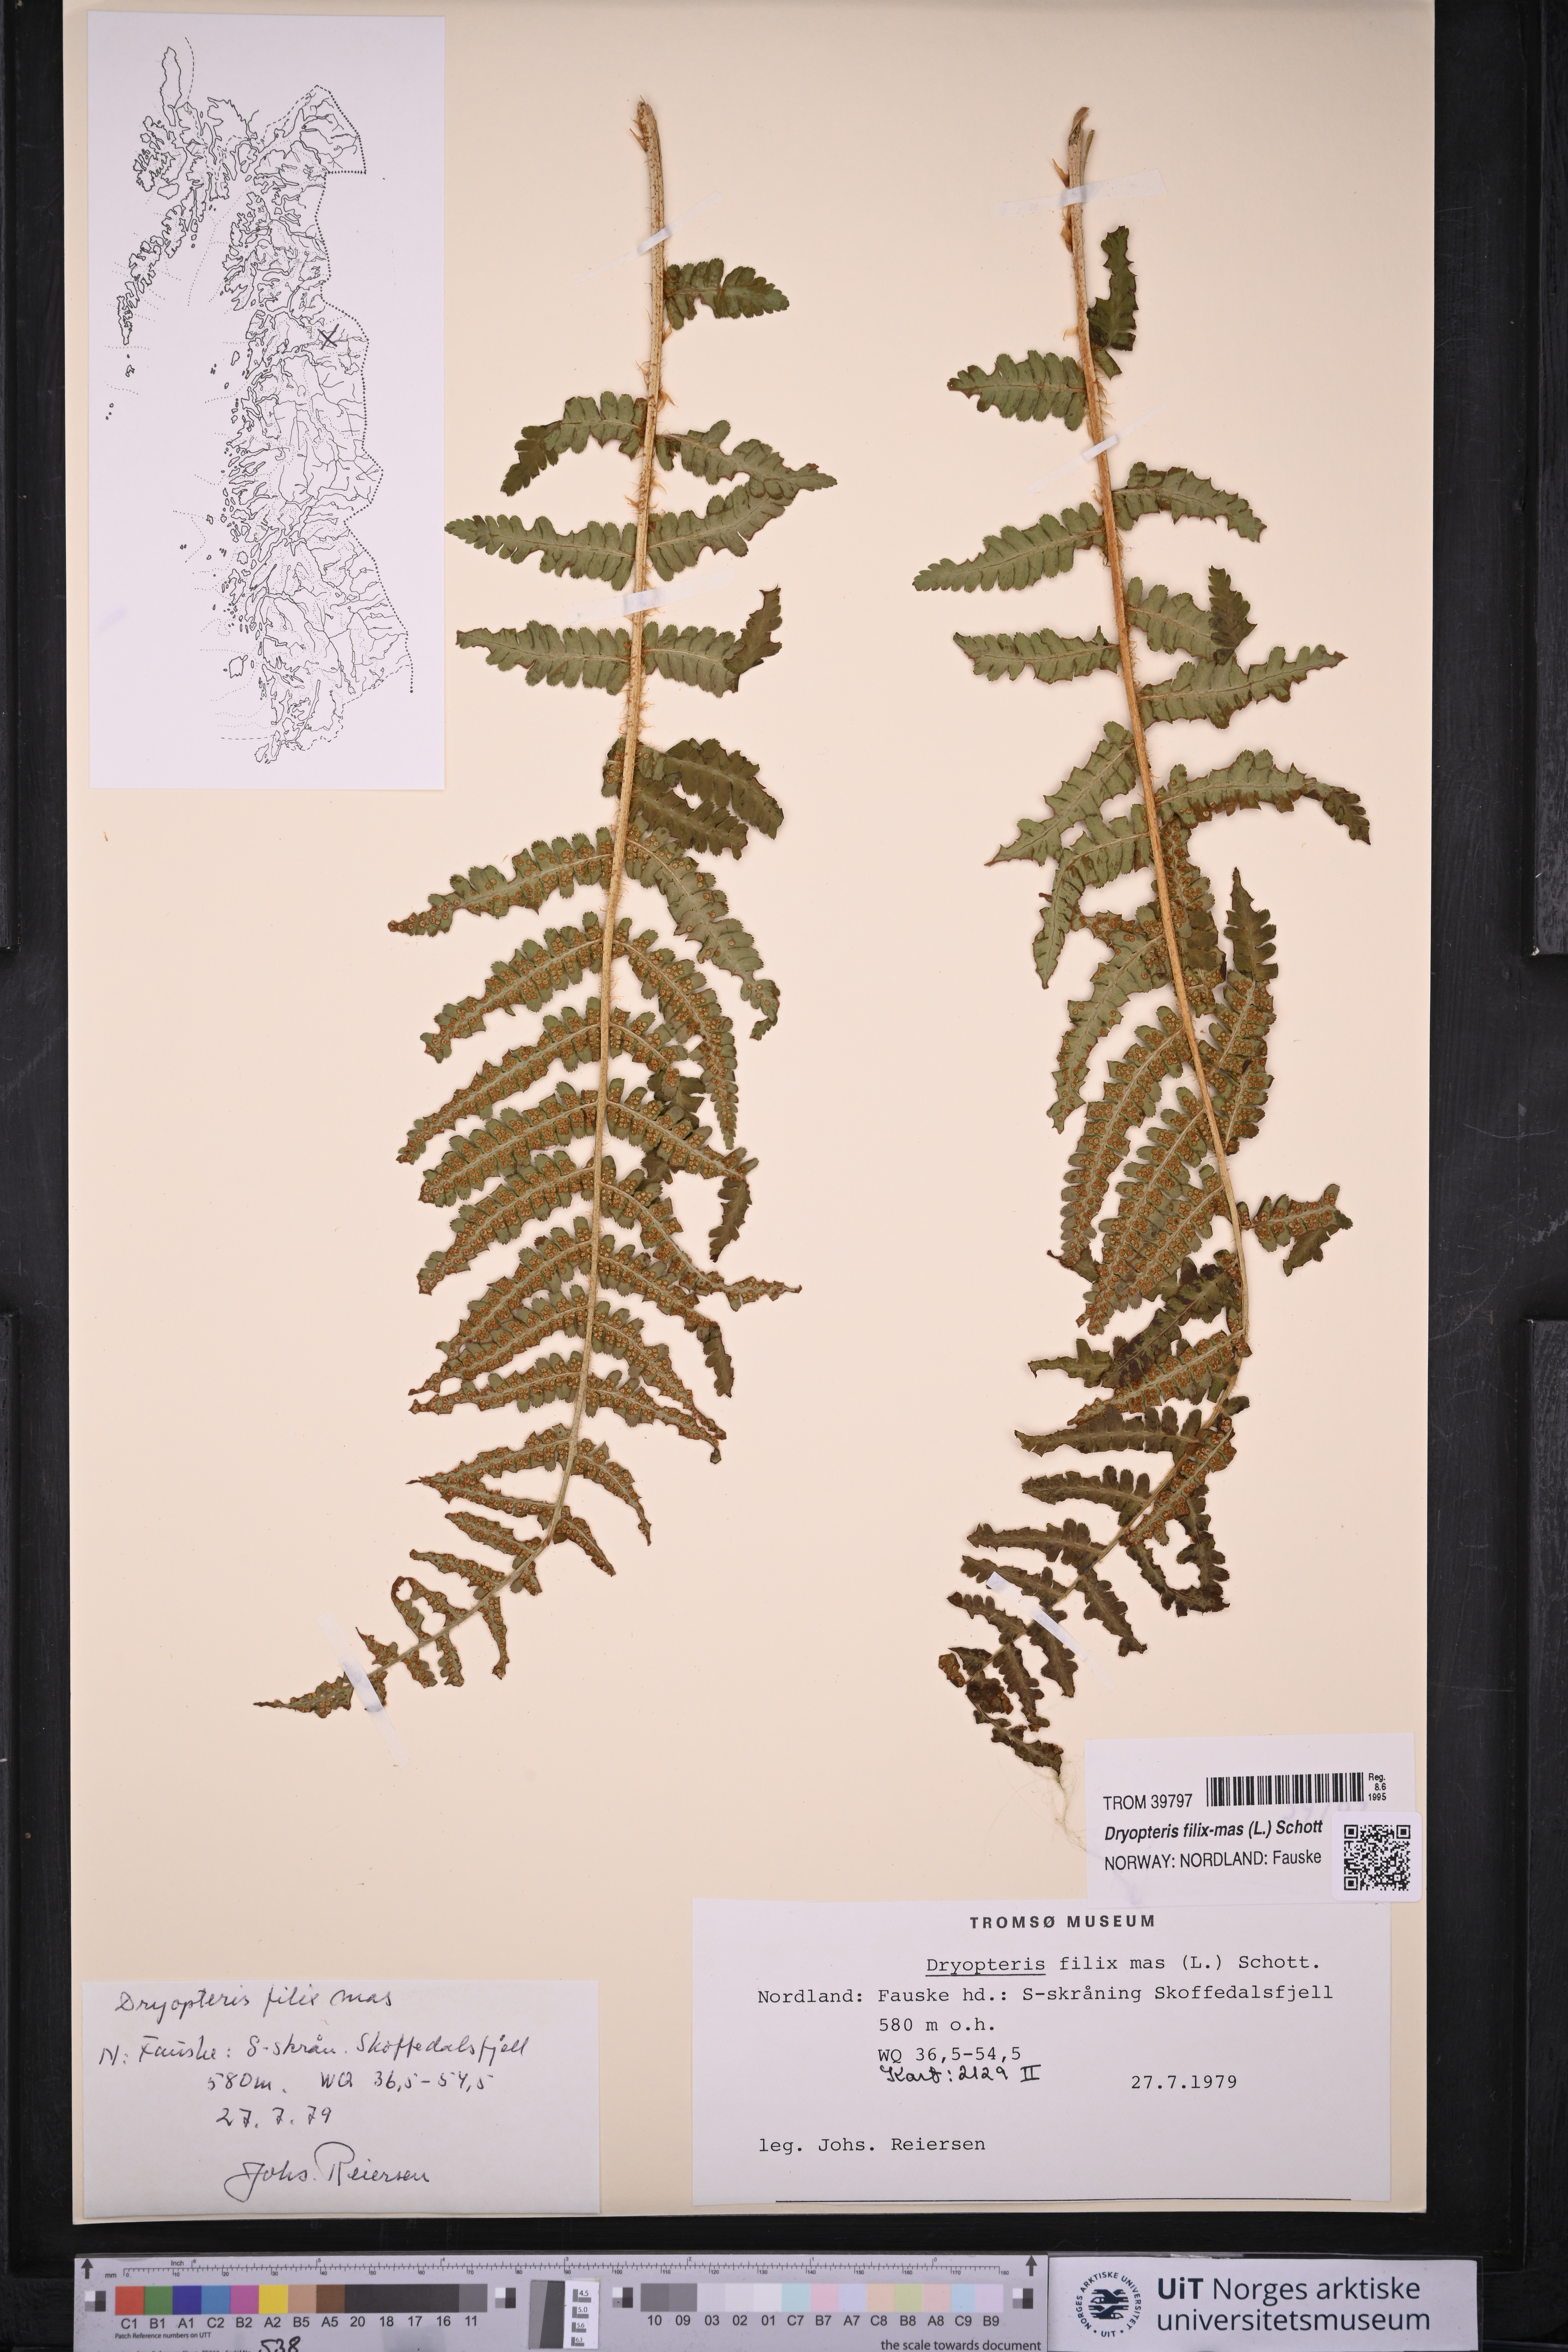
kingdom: Plantae
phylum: Tracheophyta
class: Polypodiopsida
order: Polypodiales
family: Dryopteridaceae
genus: Dryopteris
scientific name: Dryopteris filix-mas
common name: Male fern
